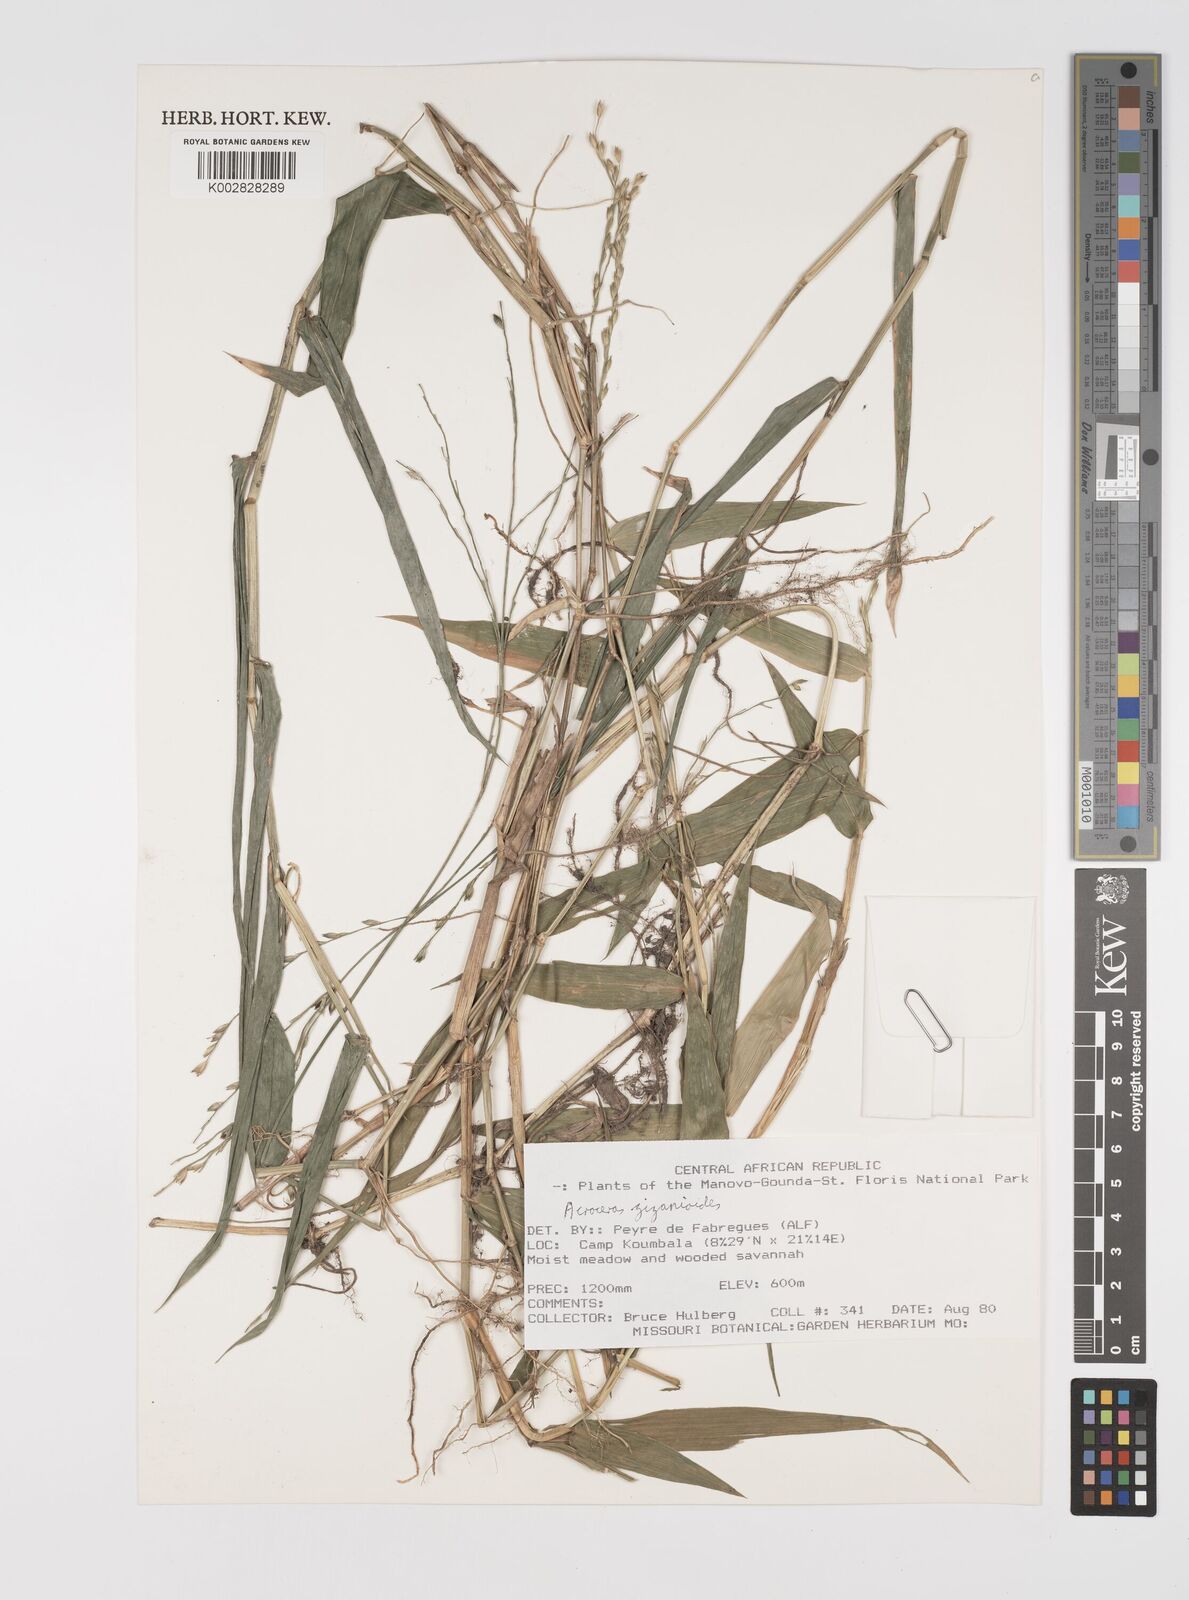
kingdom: Plantae
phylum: Tracheophyta
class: Liliopsida
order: Poales
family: Poaceae
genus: Acroceras
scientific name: Acroceras zizanioides
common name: Oat grass
